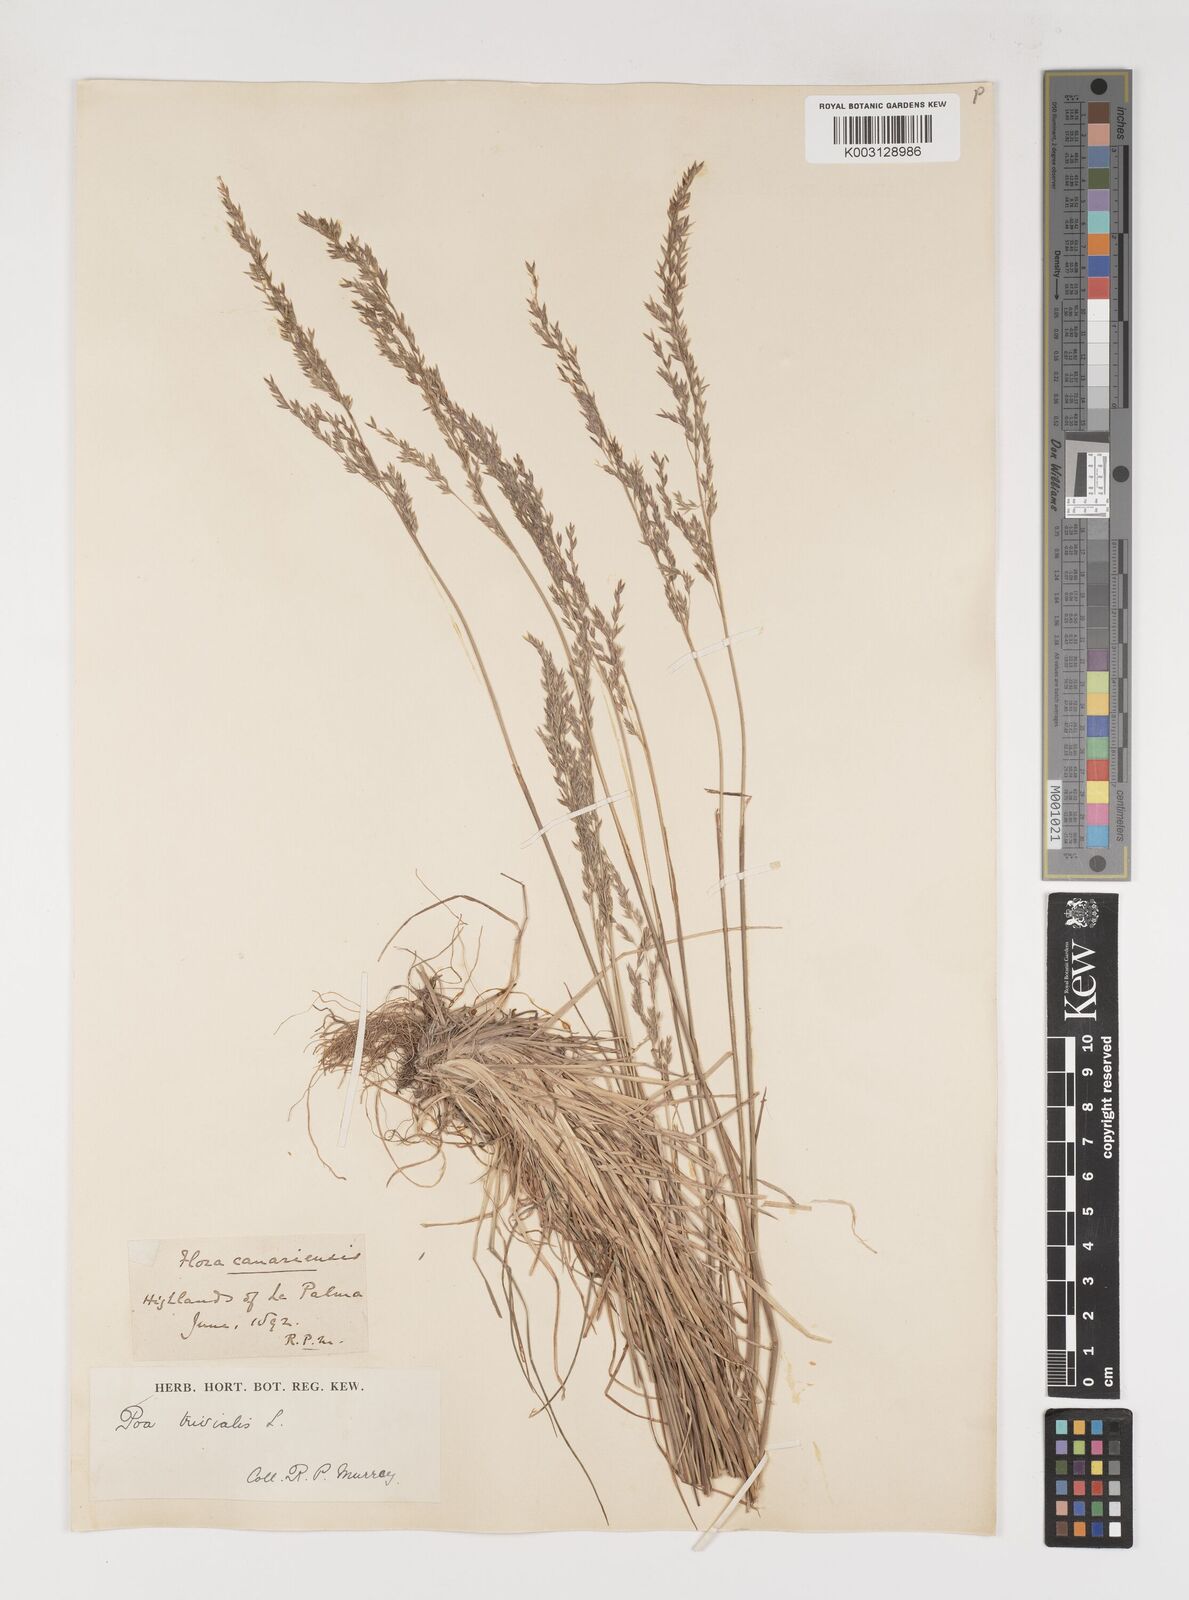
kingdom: Plantae
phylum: Tracheophyta
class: Liliopsida
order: Poales
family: Poaceae
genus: Poa
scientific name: Poa trivialis
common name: Rough bluegrass
